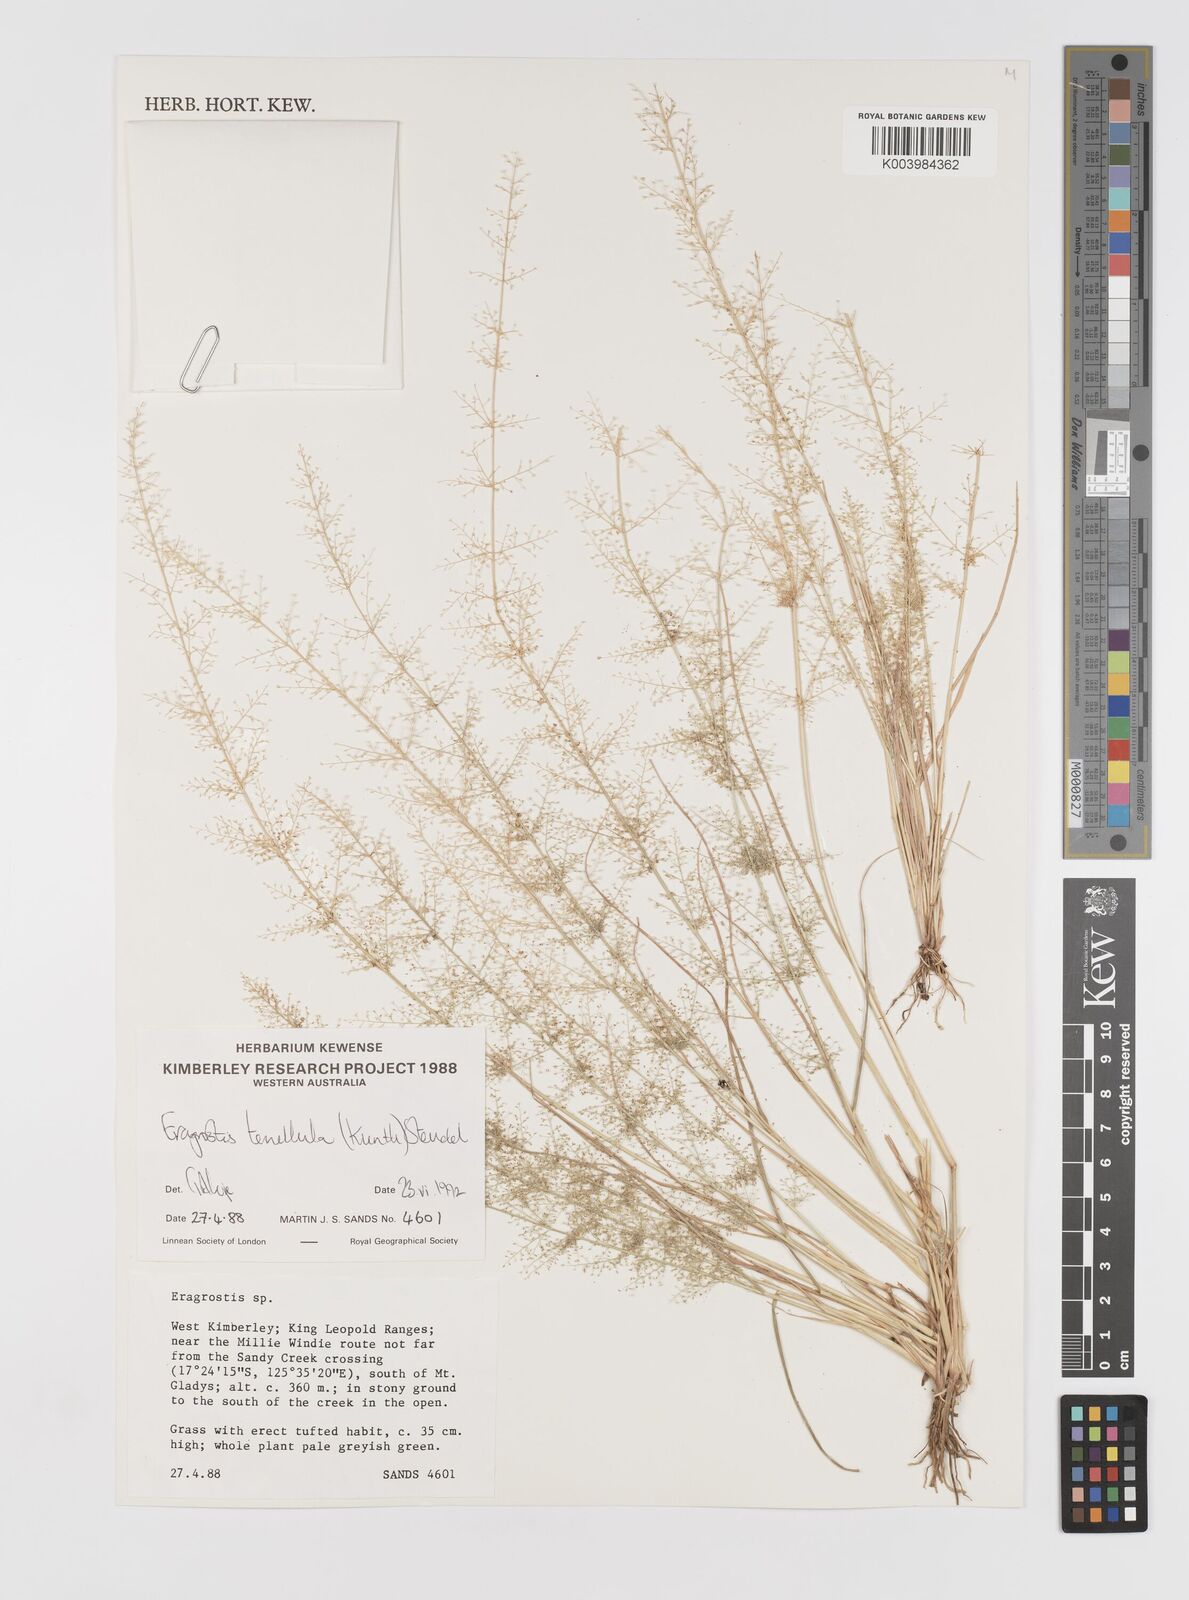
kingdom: Plantae
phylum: Tracheophyta
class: Liliopsida
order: Poales
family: Poaceae
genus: Eragrostis
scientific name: Eragrostis tenellula
